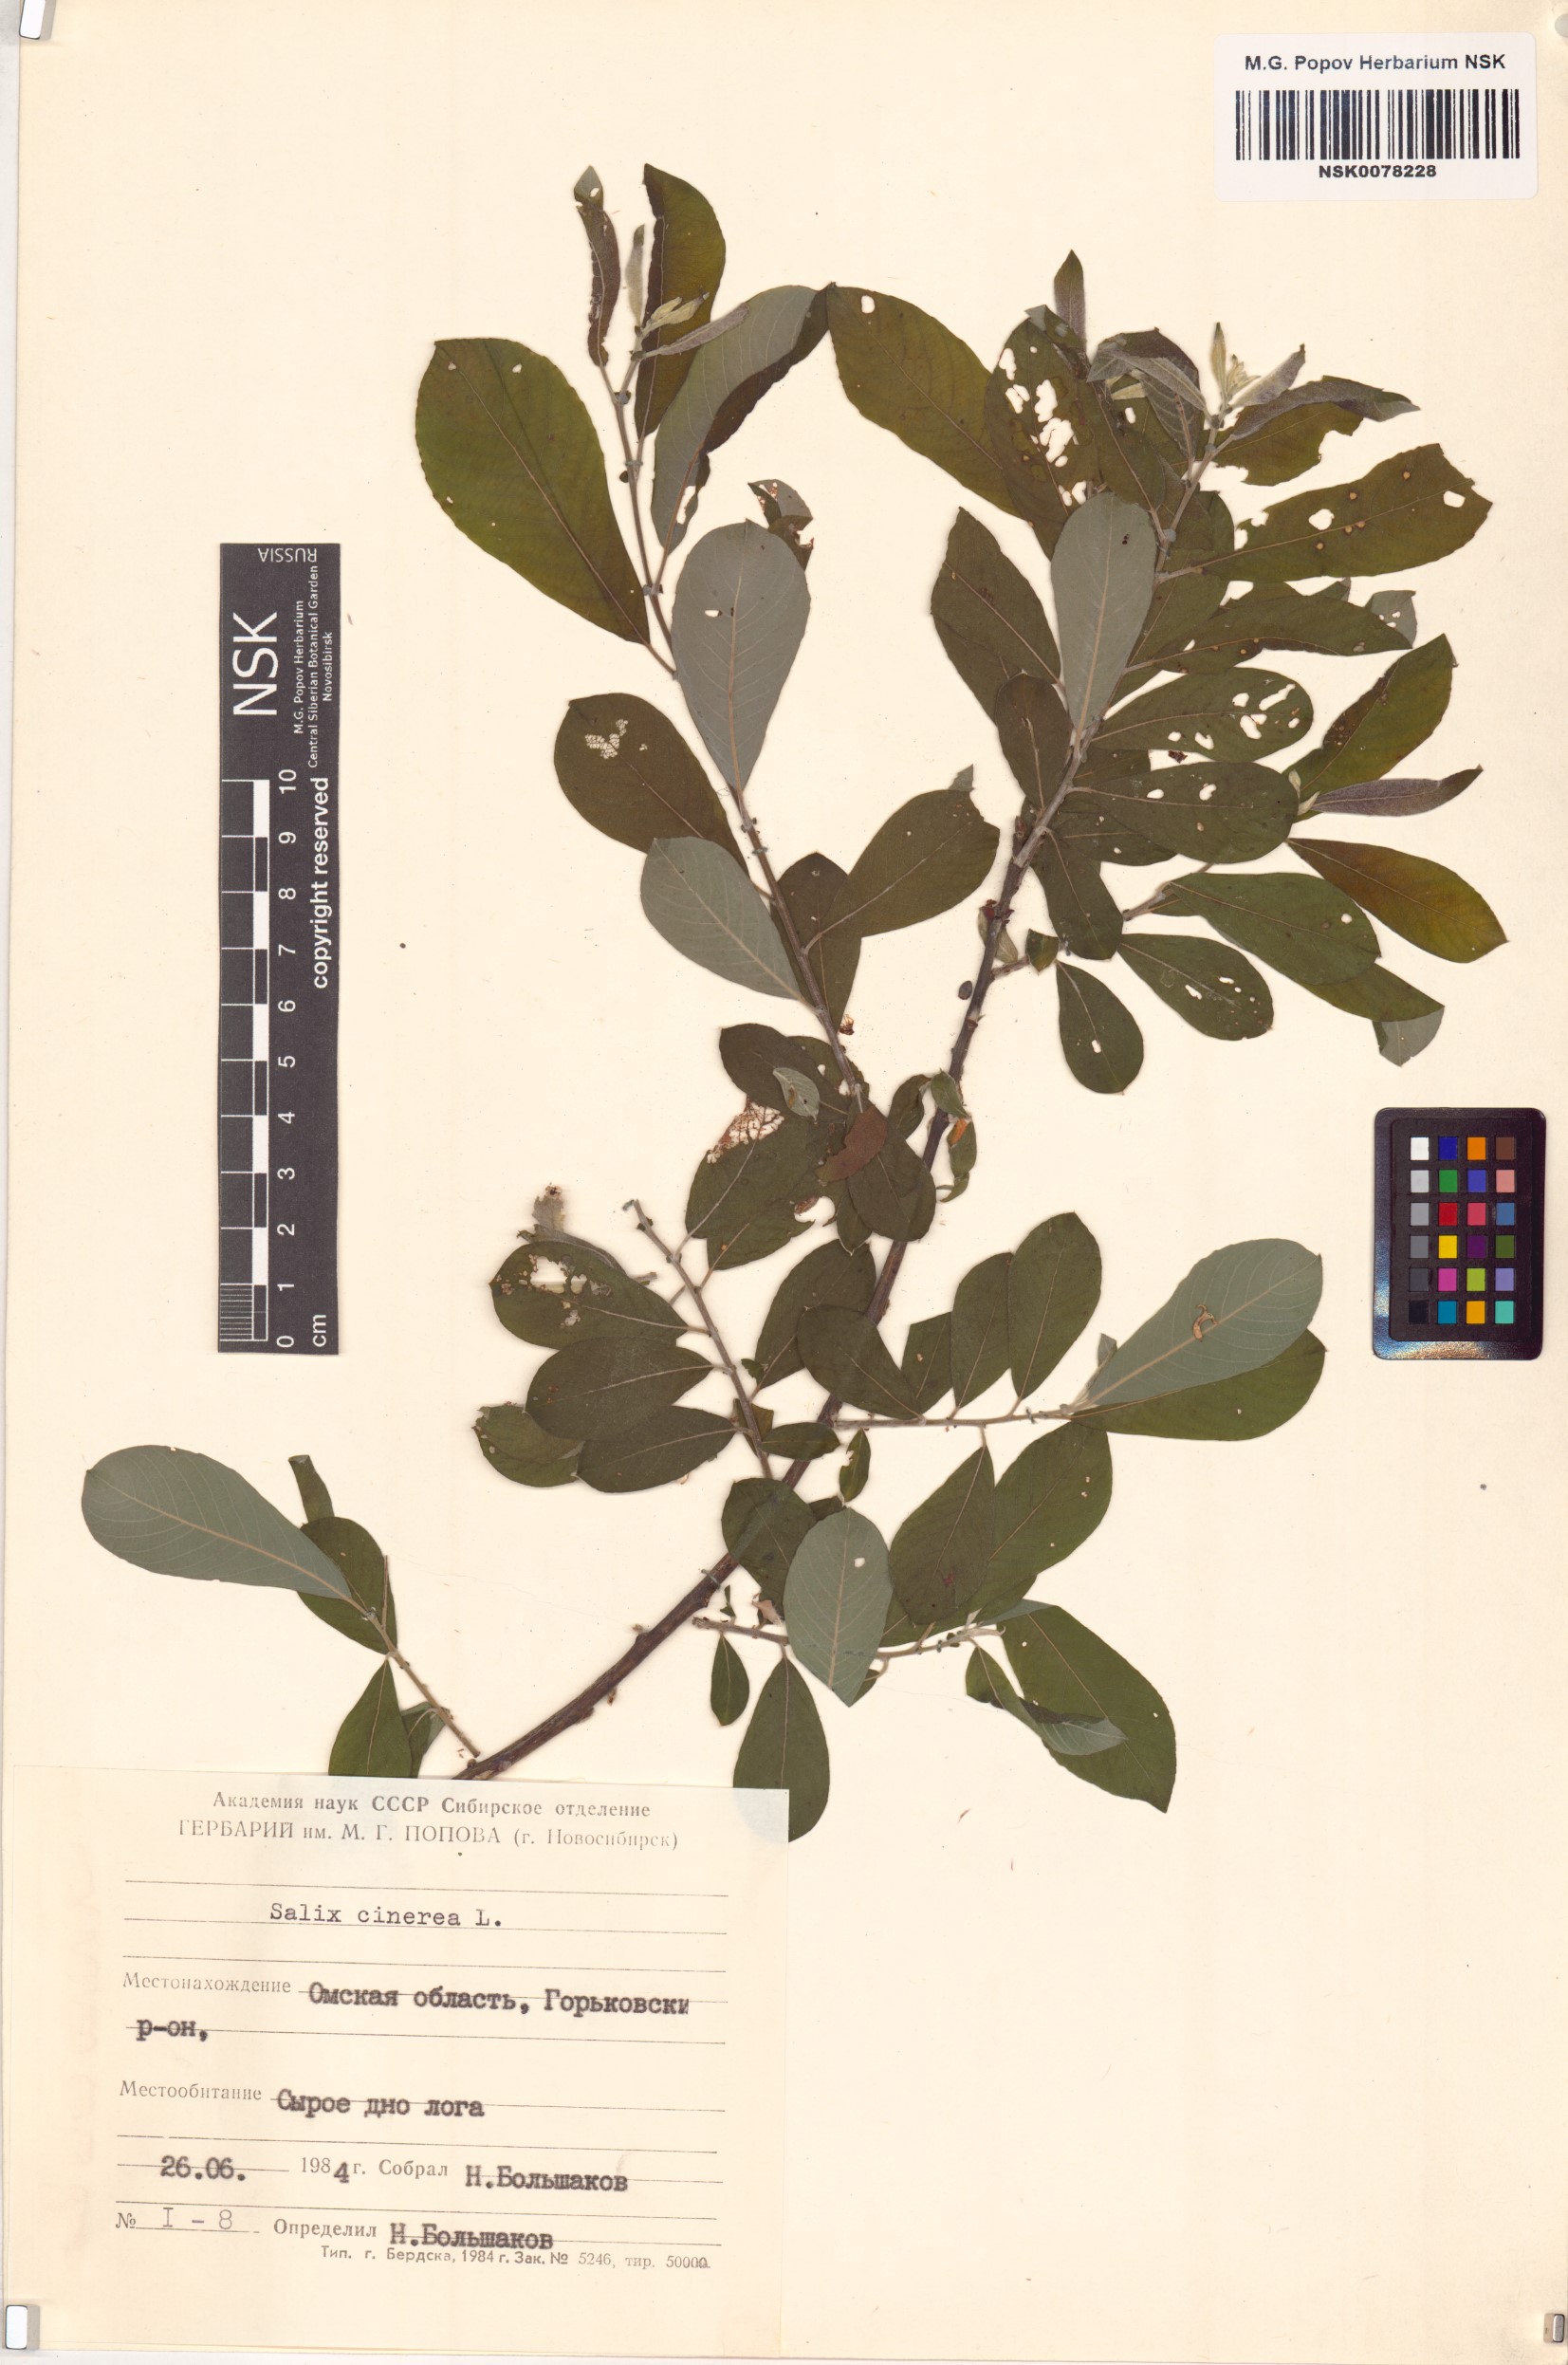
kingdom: Plantae
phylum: Tracheophyta
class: Magnoliopsida
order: Malpighiales
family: Salicaceae
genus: Salix
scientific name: Salix cinerea
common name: Common sallow
